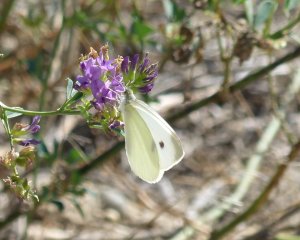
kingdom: Animalia
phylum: Arthropoda
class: Insecta
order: Lepidoptera
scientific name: Lepidoptera
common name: Butterflies
